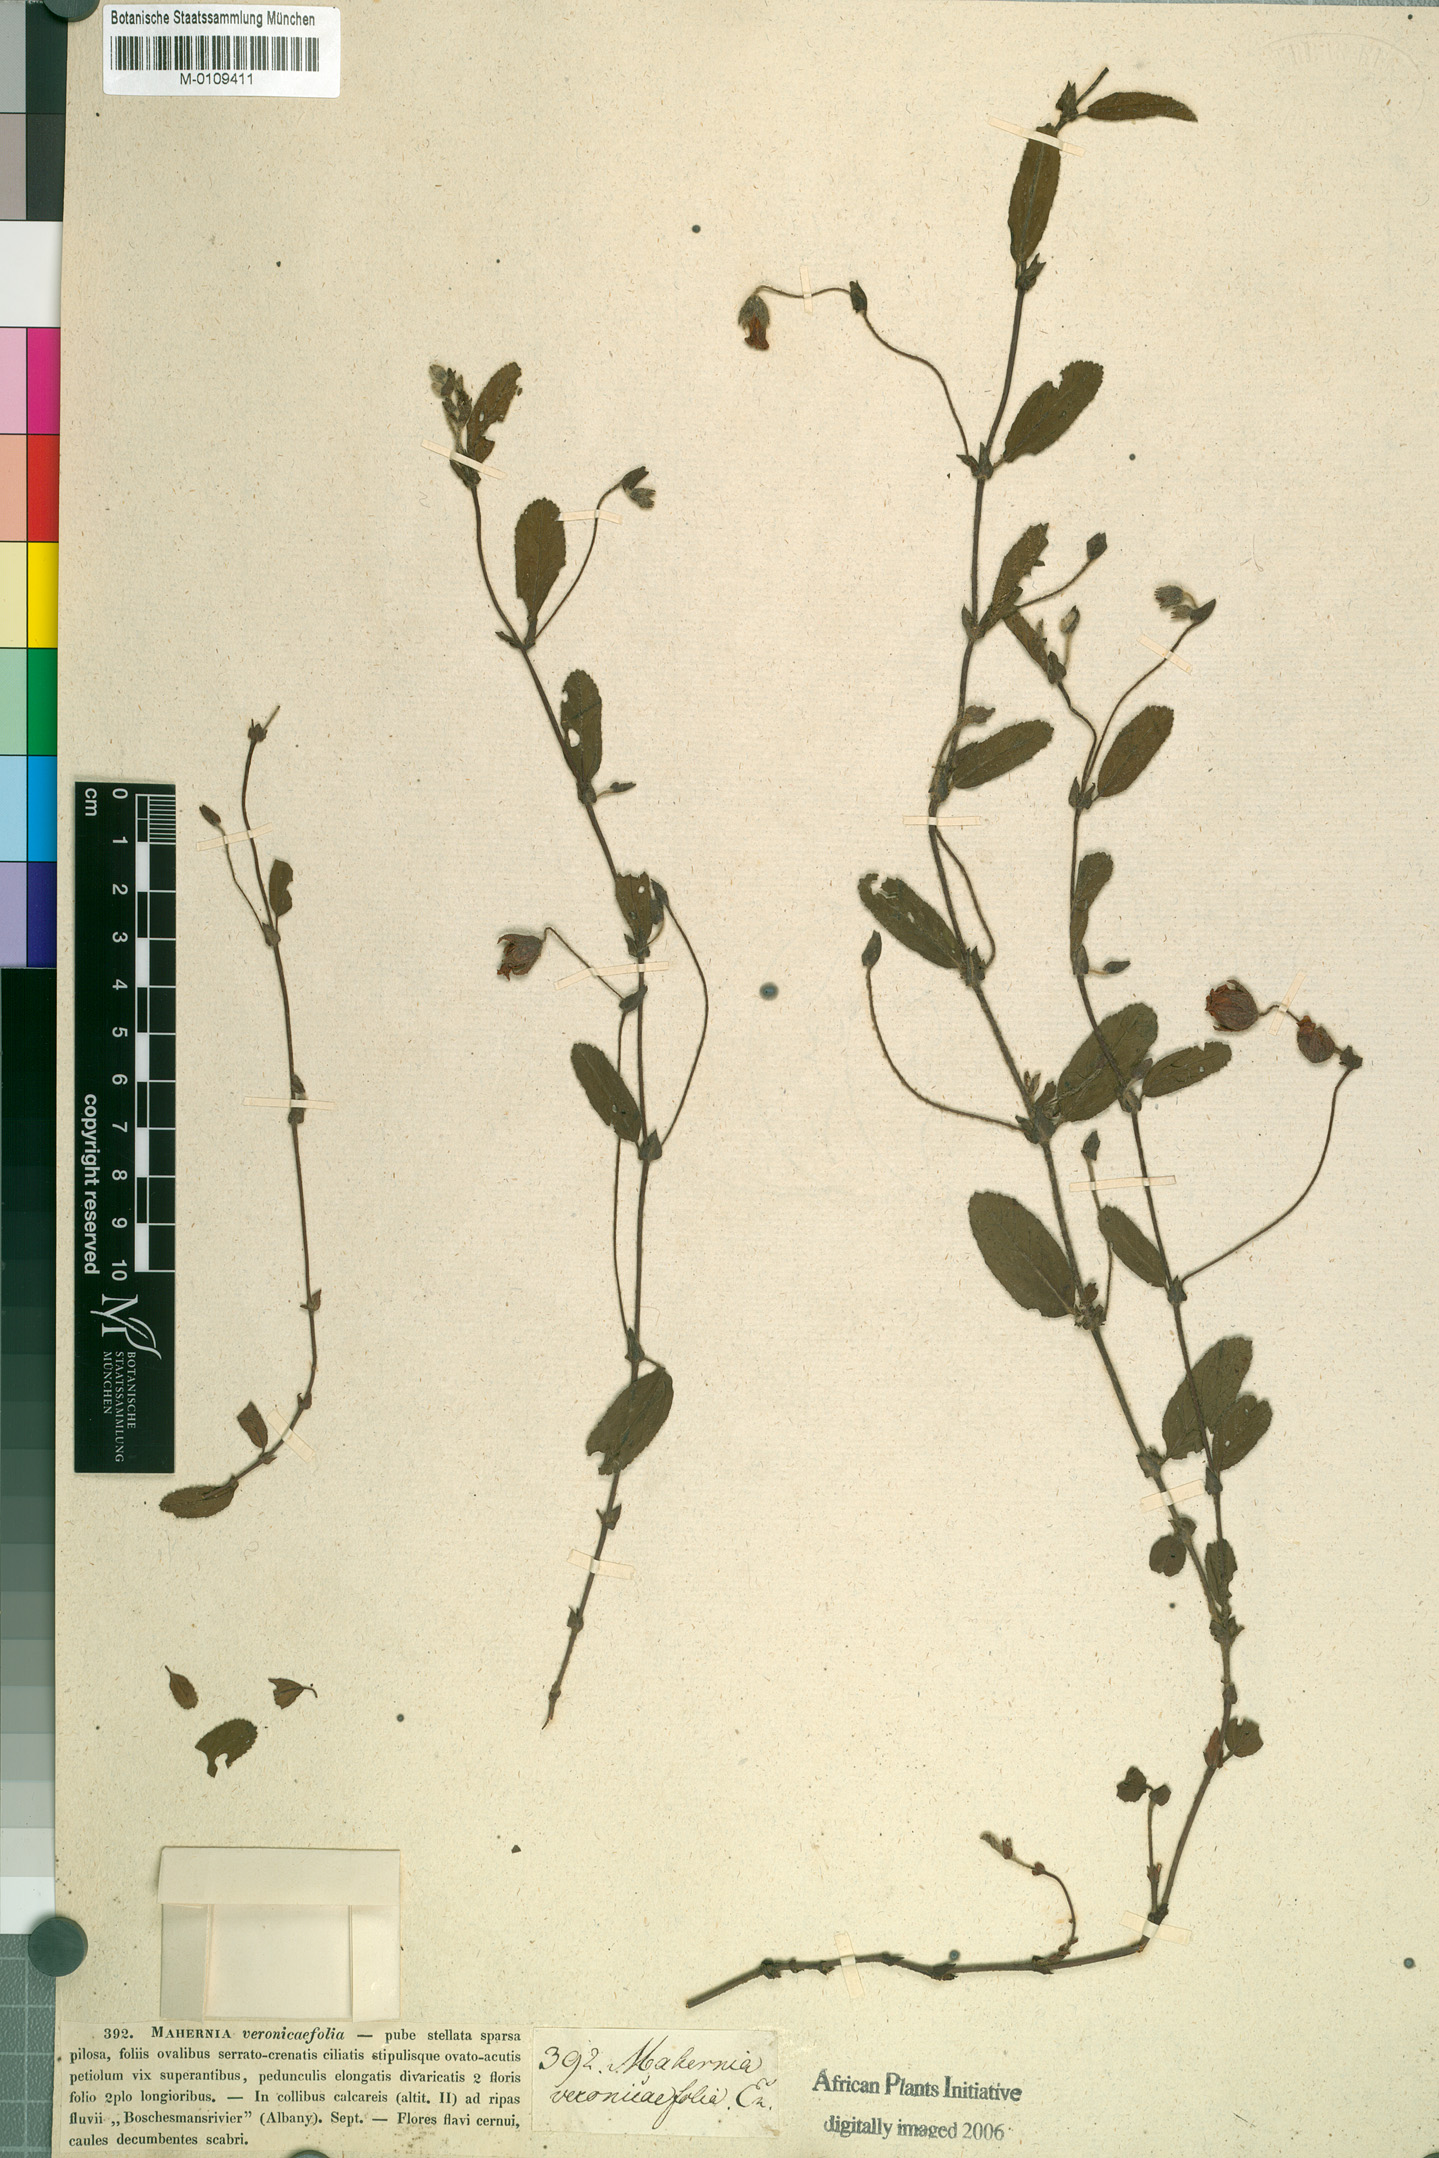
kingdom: Plantae
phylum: Tracheophyta
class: Magnoliopsida
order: Malvales
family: Malvaceae
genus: Hermannia
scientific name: Hermannia veronicifolia
